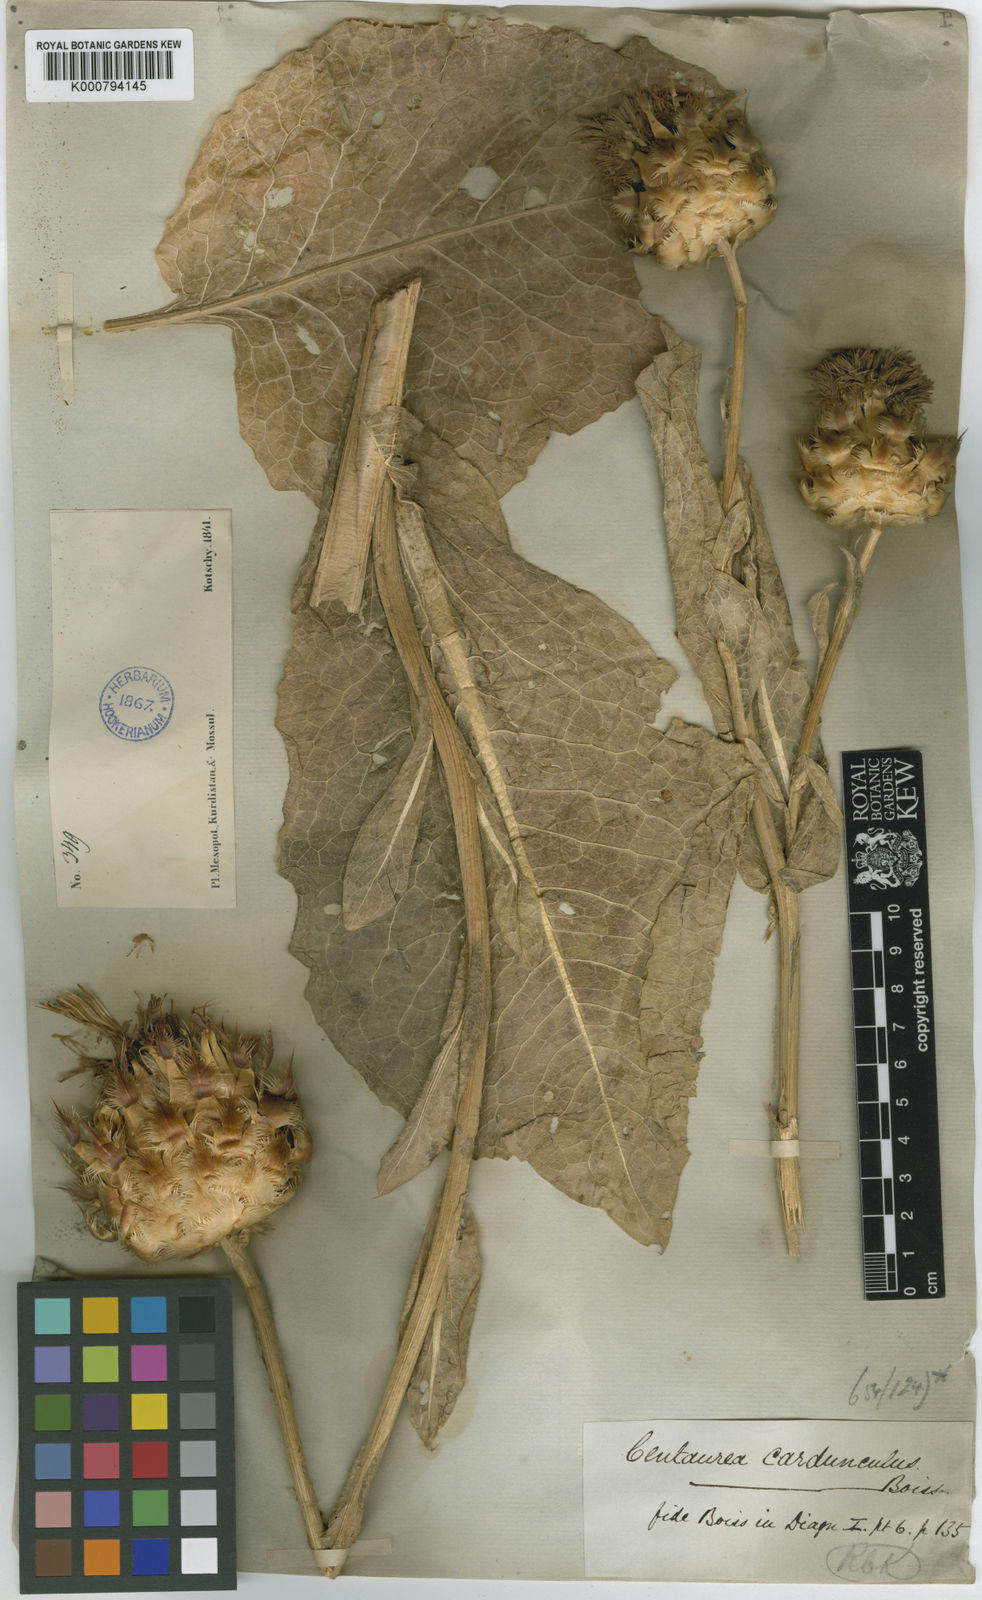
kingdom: Plantae
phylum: Tracheophyta
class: Magnoliopsida
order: Asterales
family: Asteraceae
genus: Centaurea
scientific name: Centaurea regia
